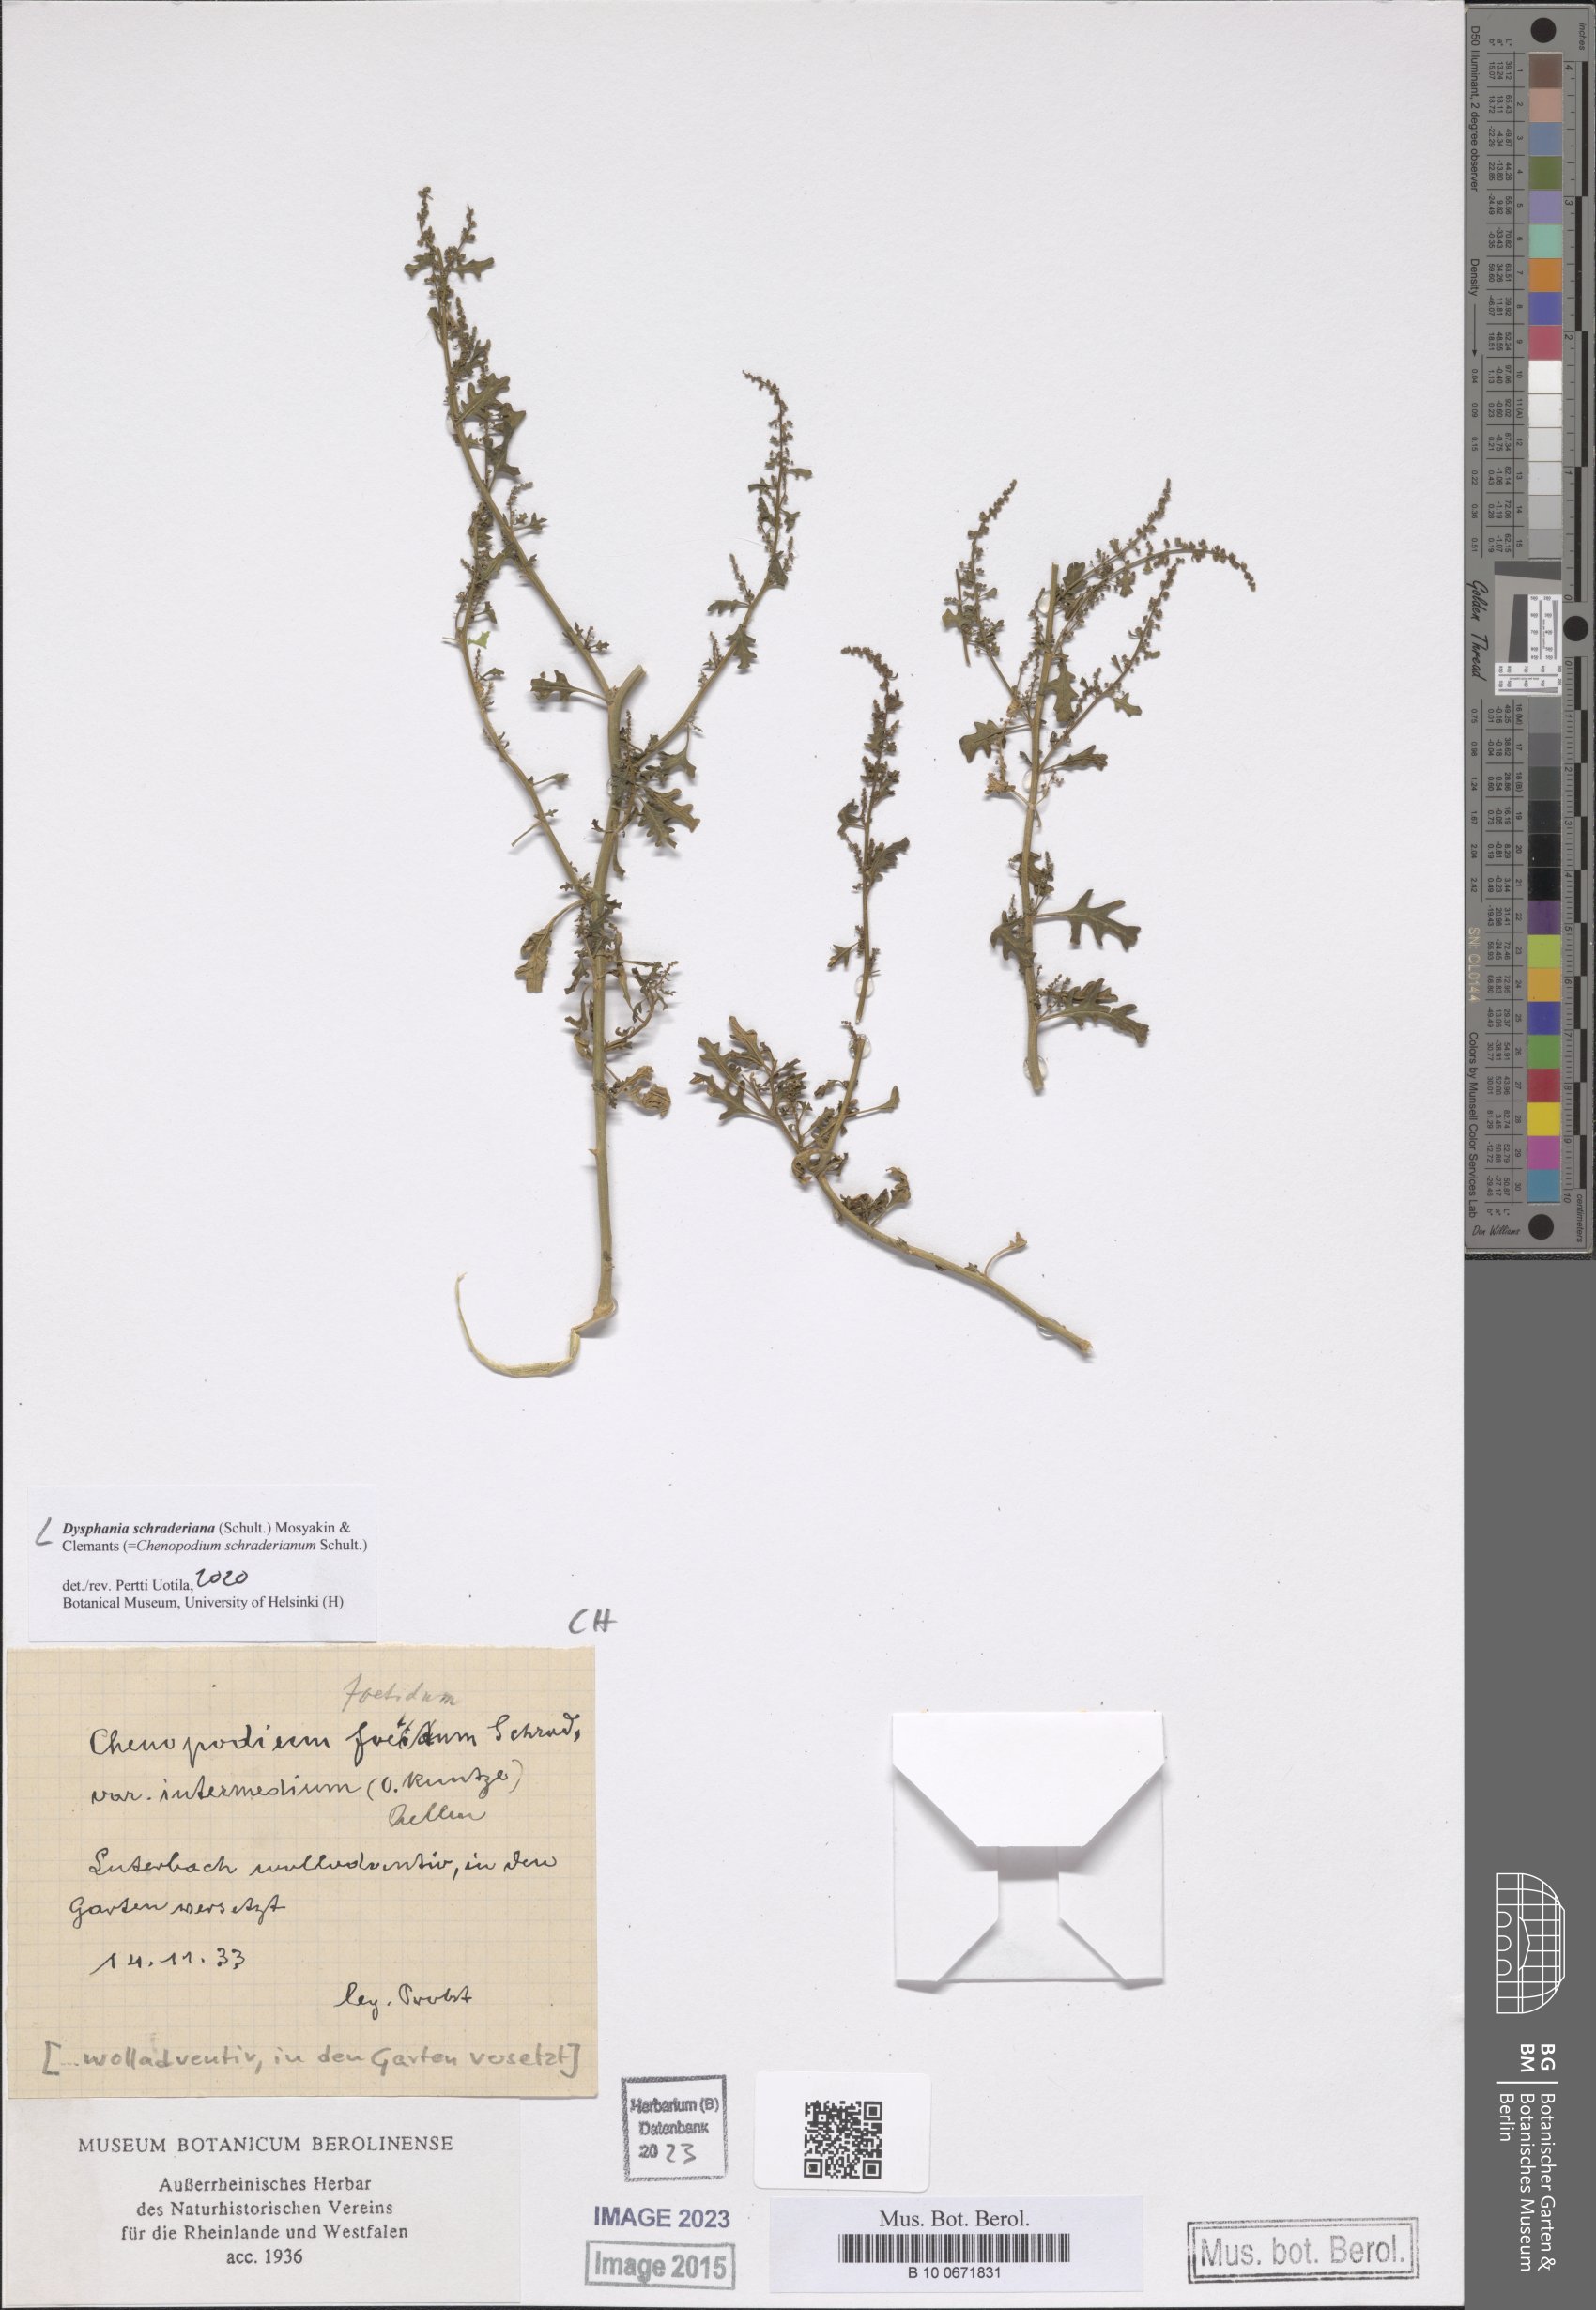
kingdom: Plantae
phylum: Tracheophyta
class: Magnoliopsida
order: Caryophyllales
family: Amaranthaceae
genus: Dysphania
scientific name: Dysphania schraderiana
